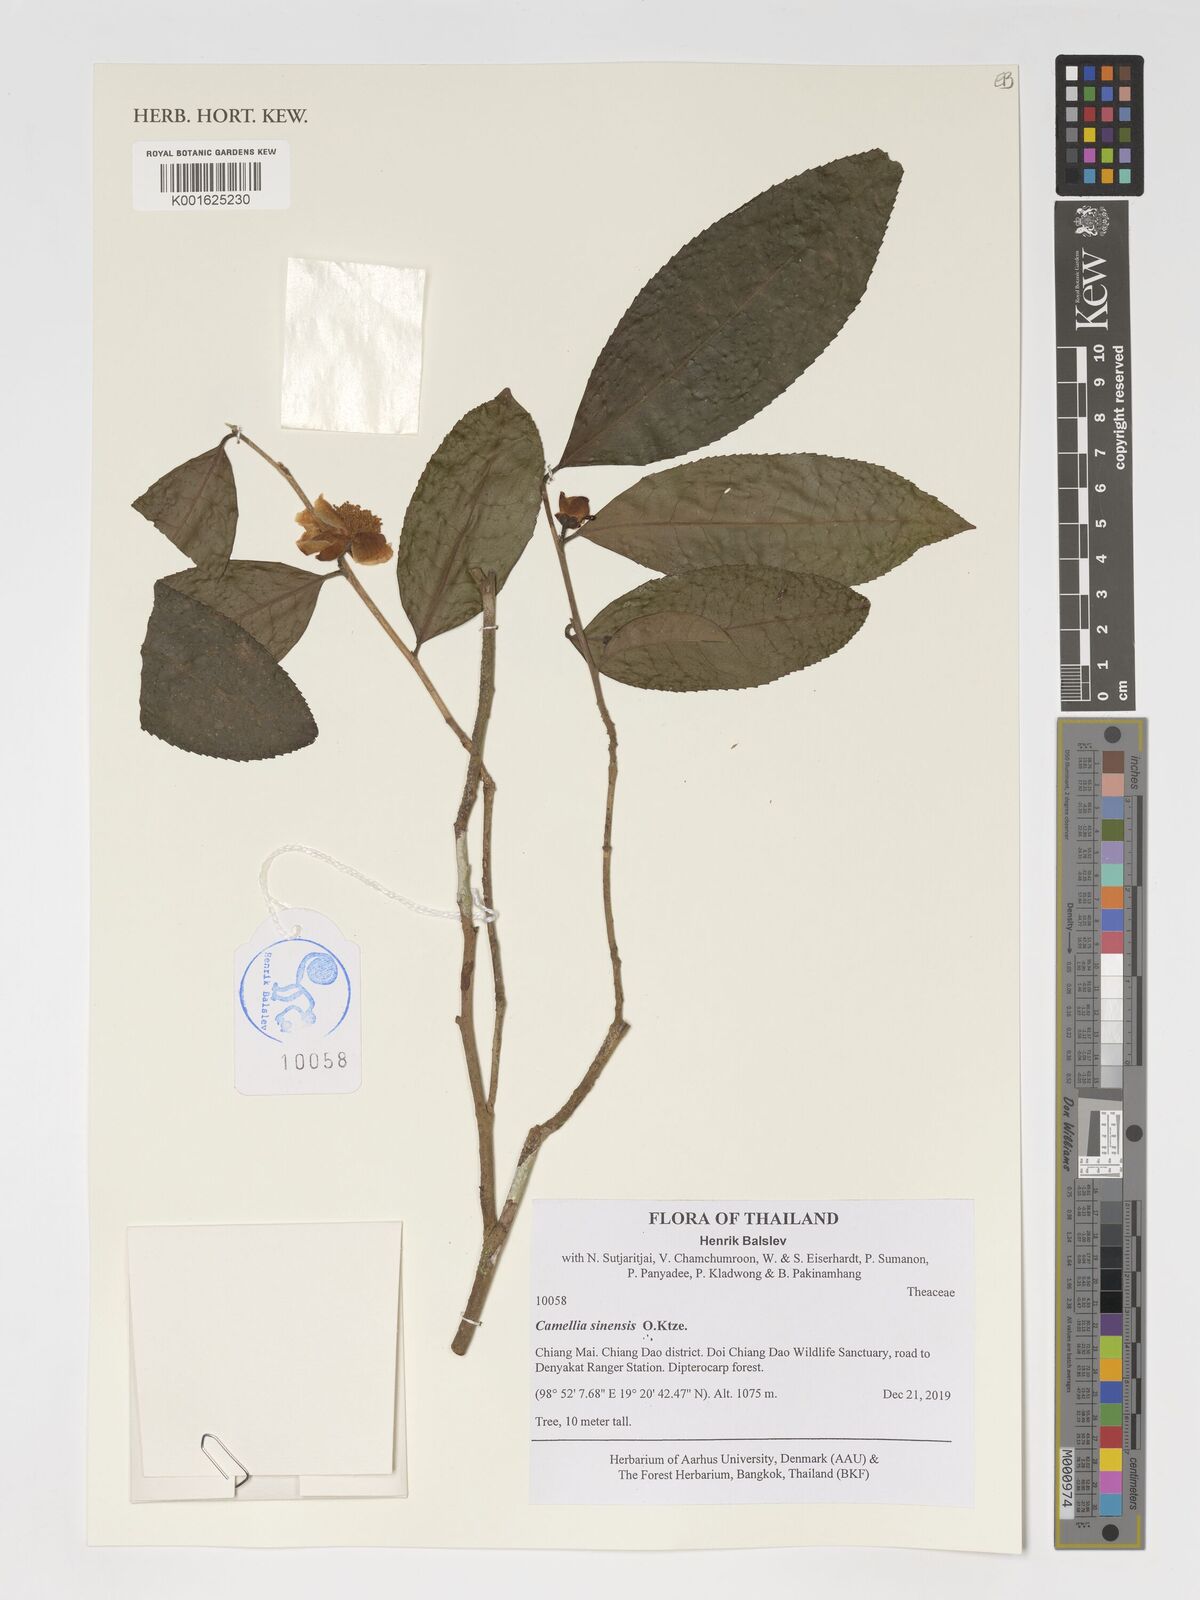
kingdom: Plantae
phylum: Tracheophyta
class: Magnoliopsida
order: Ericales
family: Theaceae
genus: Camellia
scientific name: Camellia sinensis
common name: Tea
